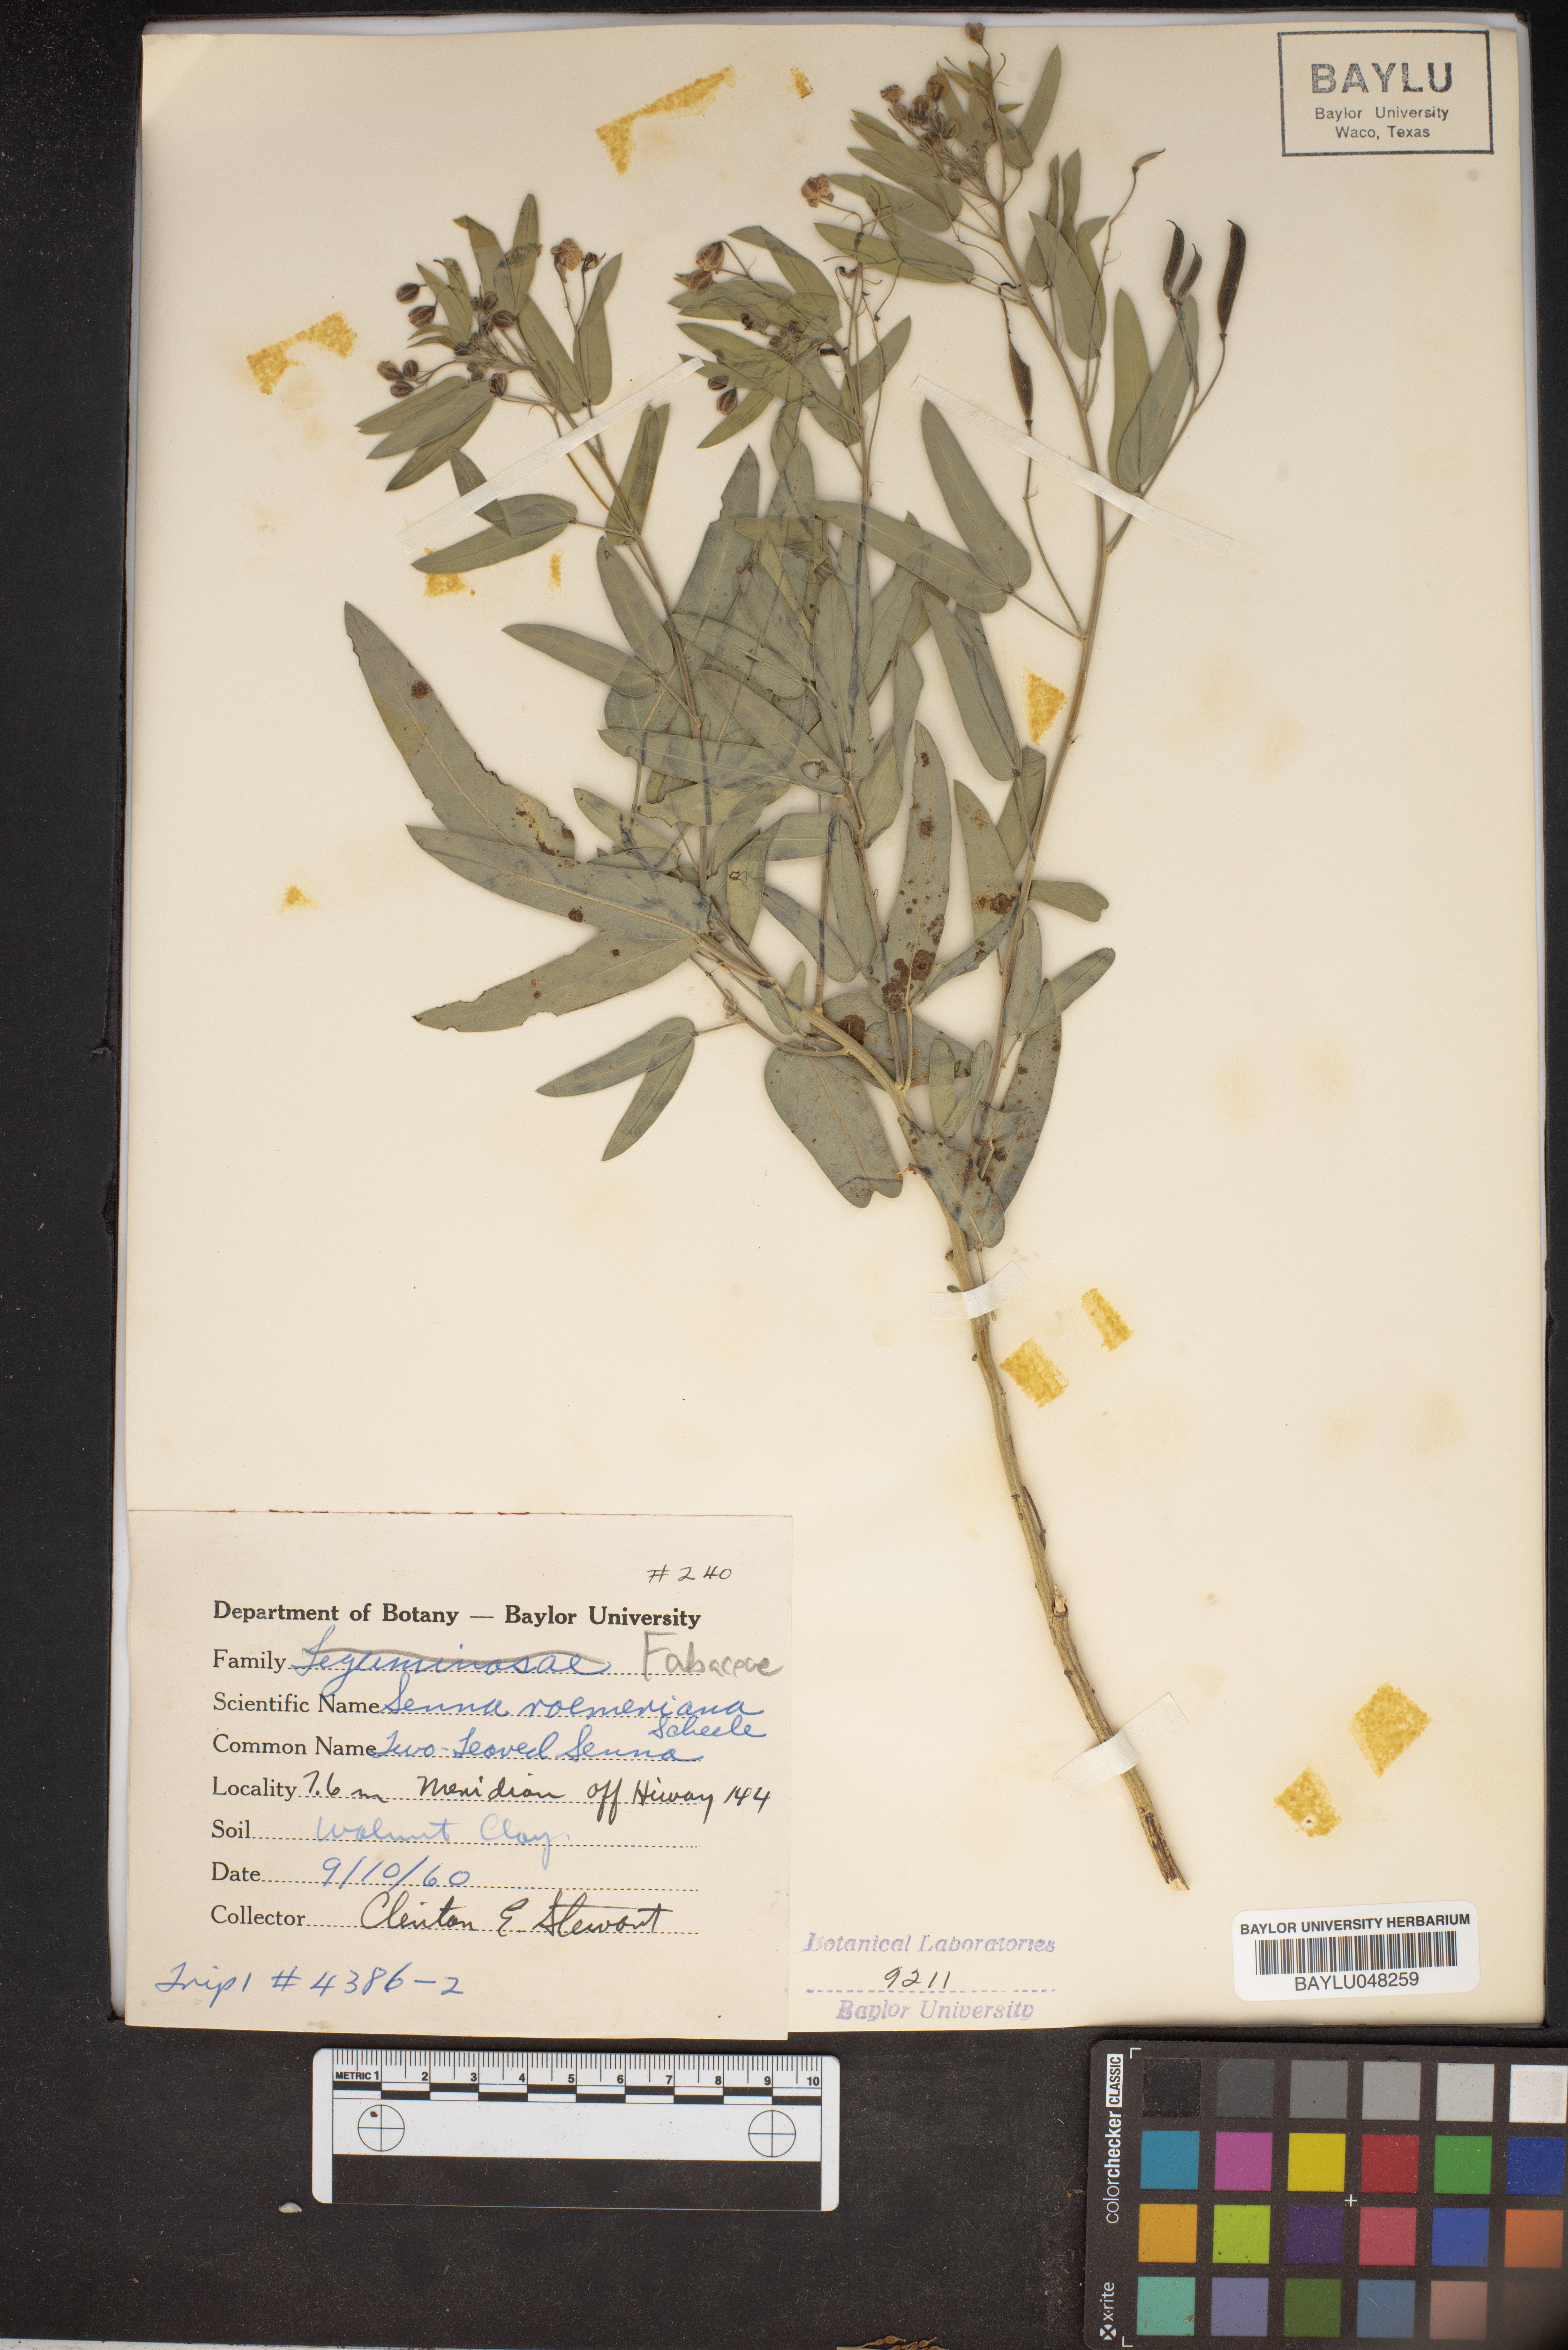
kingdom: Plantae
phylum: Tracheophyta
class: Magnoliopsida
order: Fabales
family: Fabaceae
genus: Senna
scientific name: Senna roemeriana
